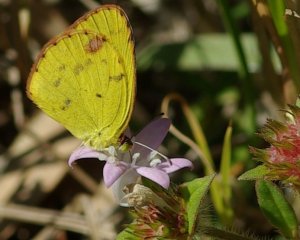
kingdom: Animalia
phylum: Arthropoda
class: Insecta
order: Lepidoptera
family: Pieridae
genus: Pyrisitia
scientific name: Pyrisitia lisa
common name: Little Yellow
